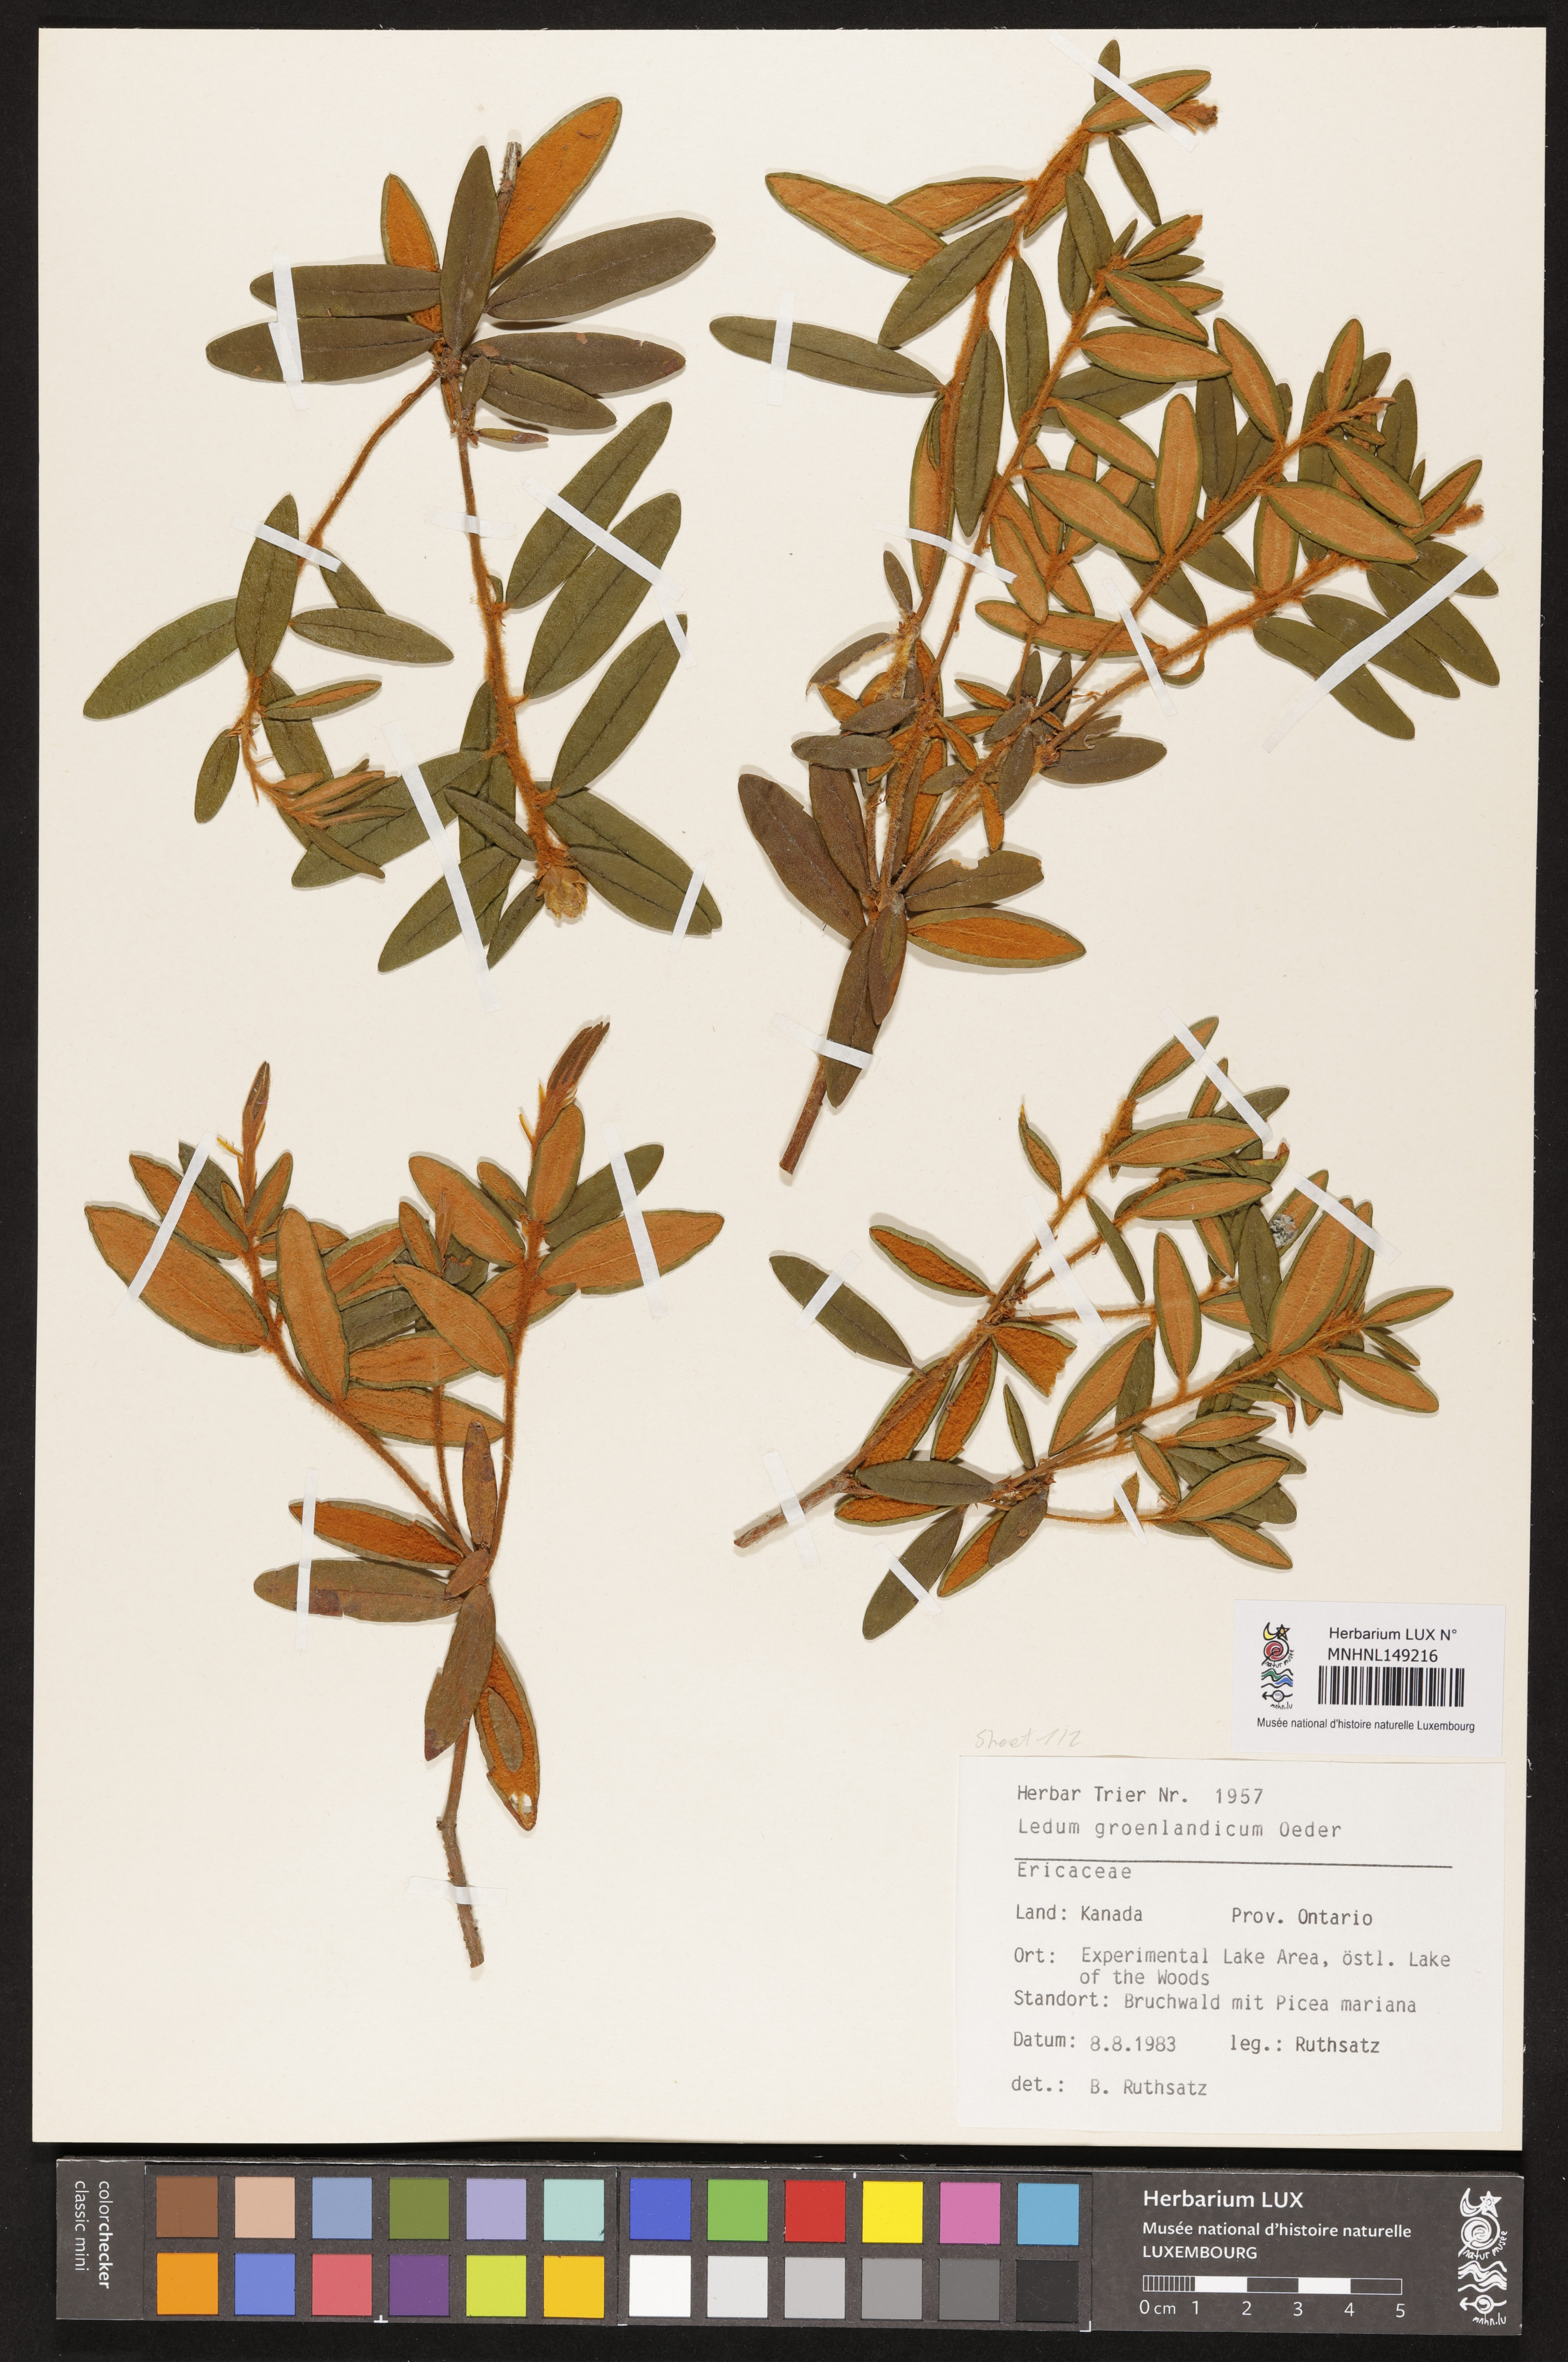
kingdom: Plantae
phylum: Tracheophyta
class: Magnoliopsida
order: Ericales
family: Ericaceae
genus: Rhododendron
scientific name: Rhododendron groenlandicum
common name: Bog labrador tea
